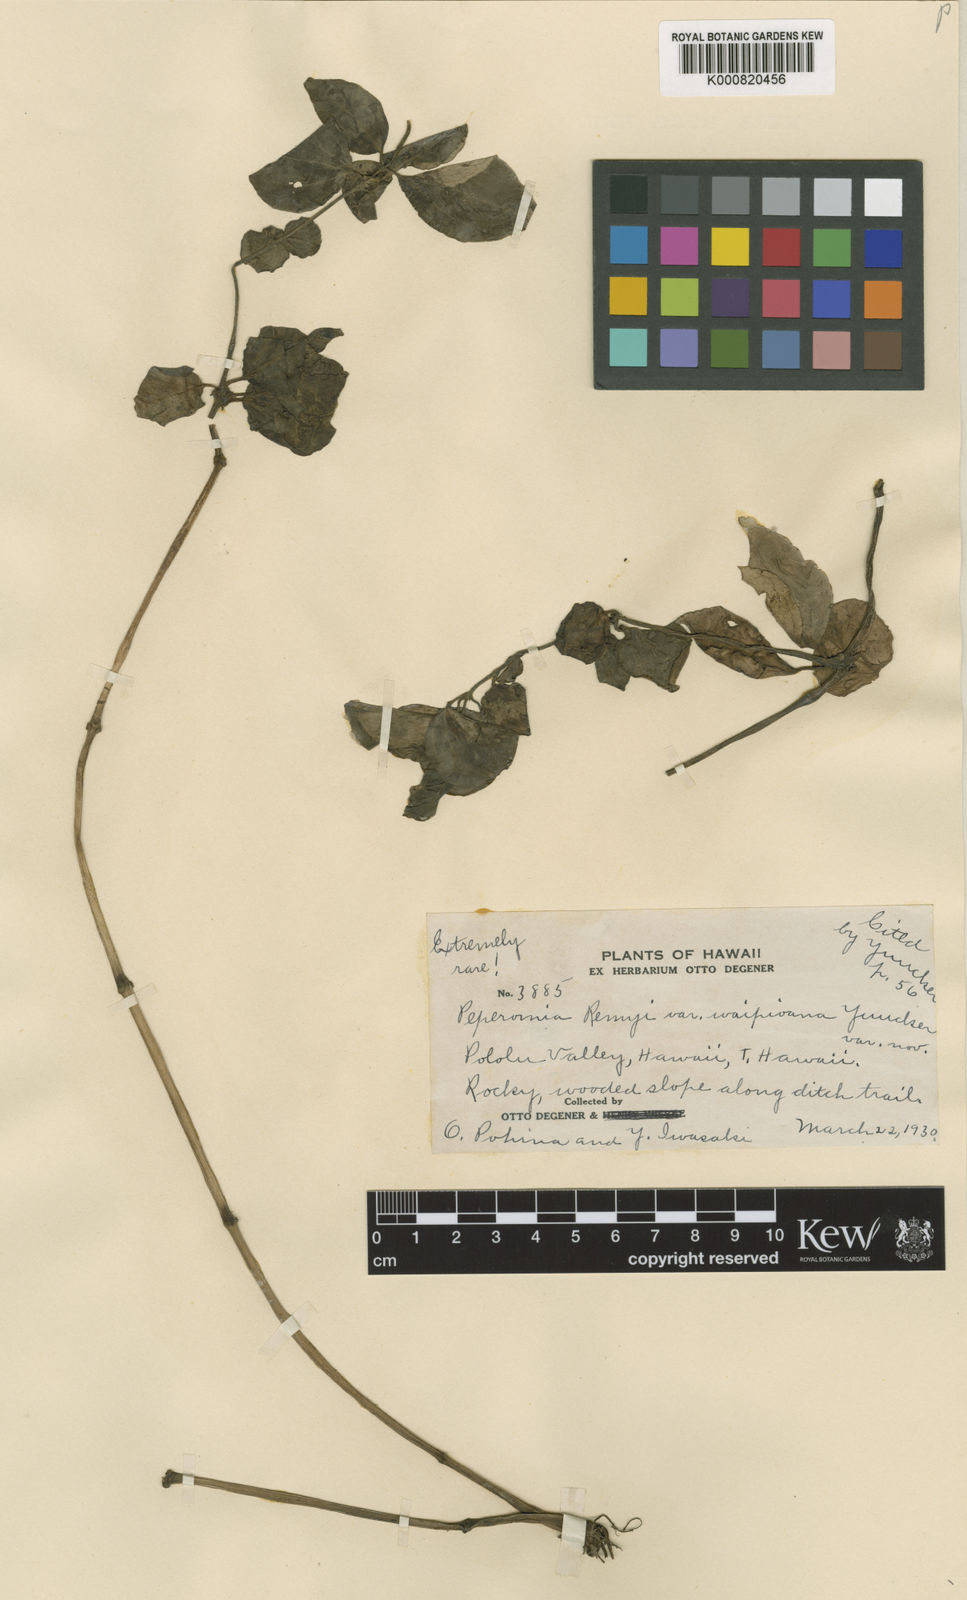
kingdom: Plantae
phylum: Tracheophyta
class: Magnoliopsida
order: Piperales
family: Piperaceae
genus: Peperomia
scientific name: Peperomia remyi
